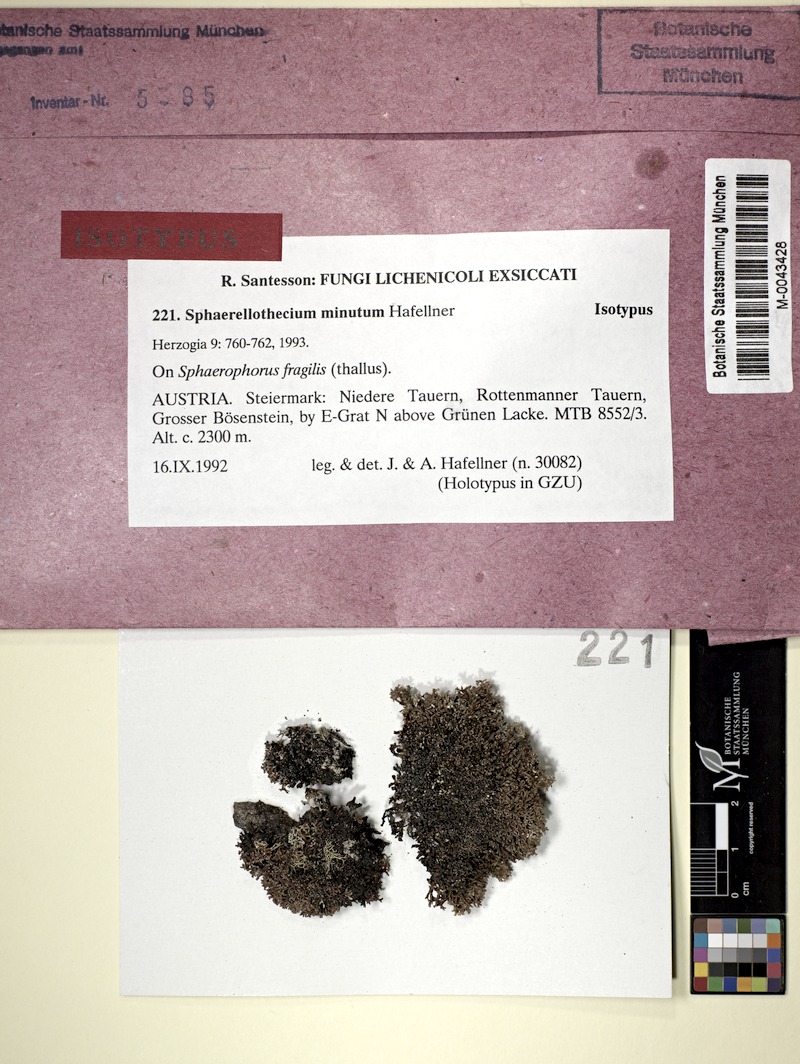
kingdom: Fungi
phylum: Ascomycota
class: Lecanoromycetes
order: Lecanorales
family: Sphaerophoraceae
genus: Sphaerophorus
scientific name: Sphaerophorus fragilis
